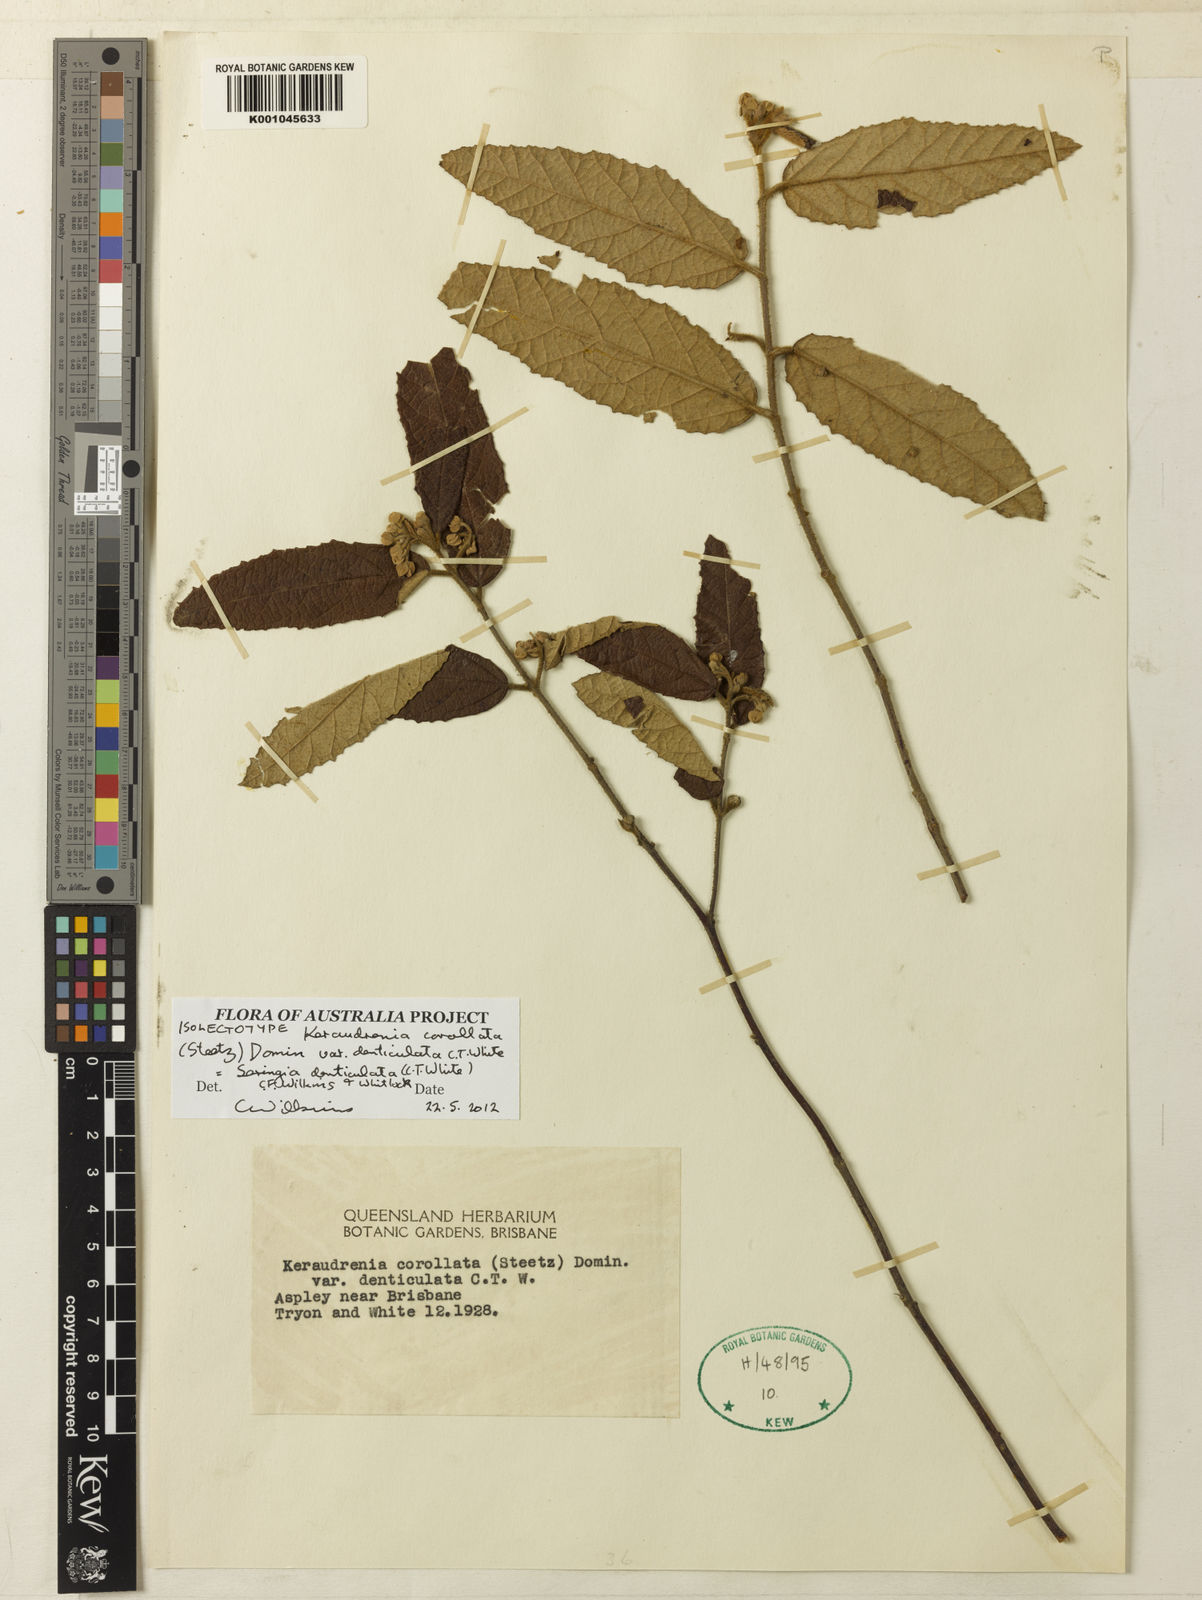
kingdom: Plantae
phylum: Tracheophyta
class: Magnoliopsida
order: Malvales
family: Malvaceae
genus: Seringia
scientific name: Seringia
